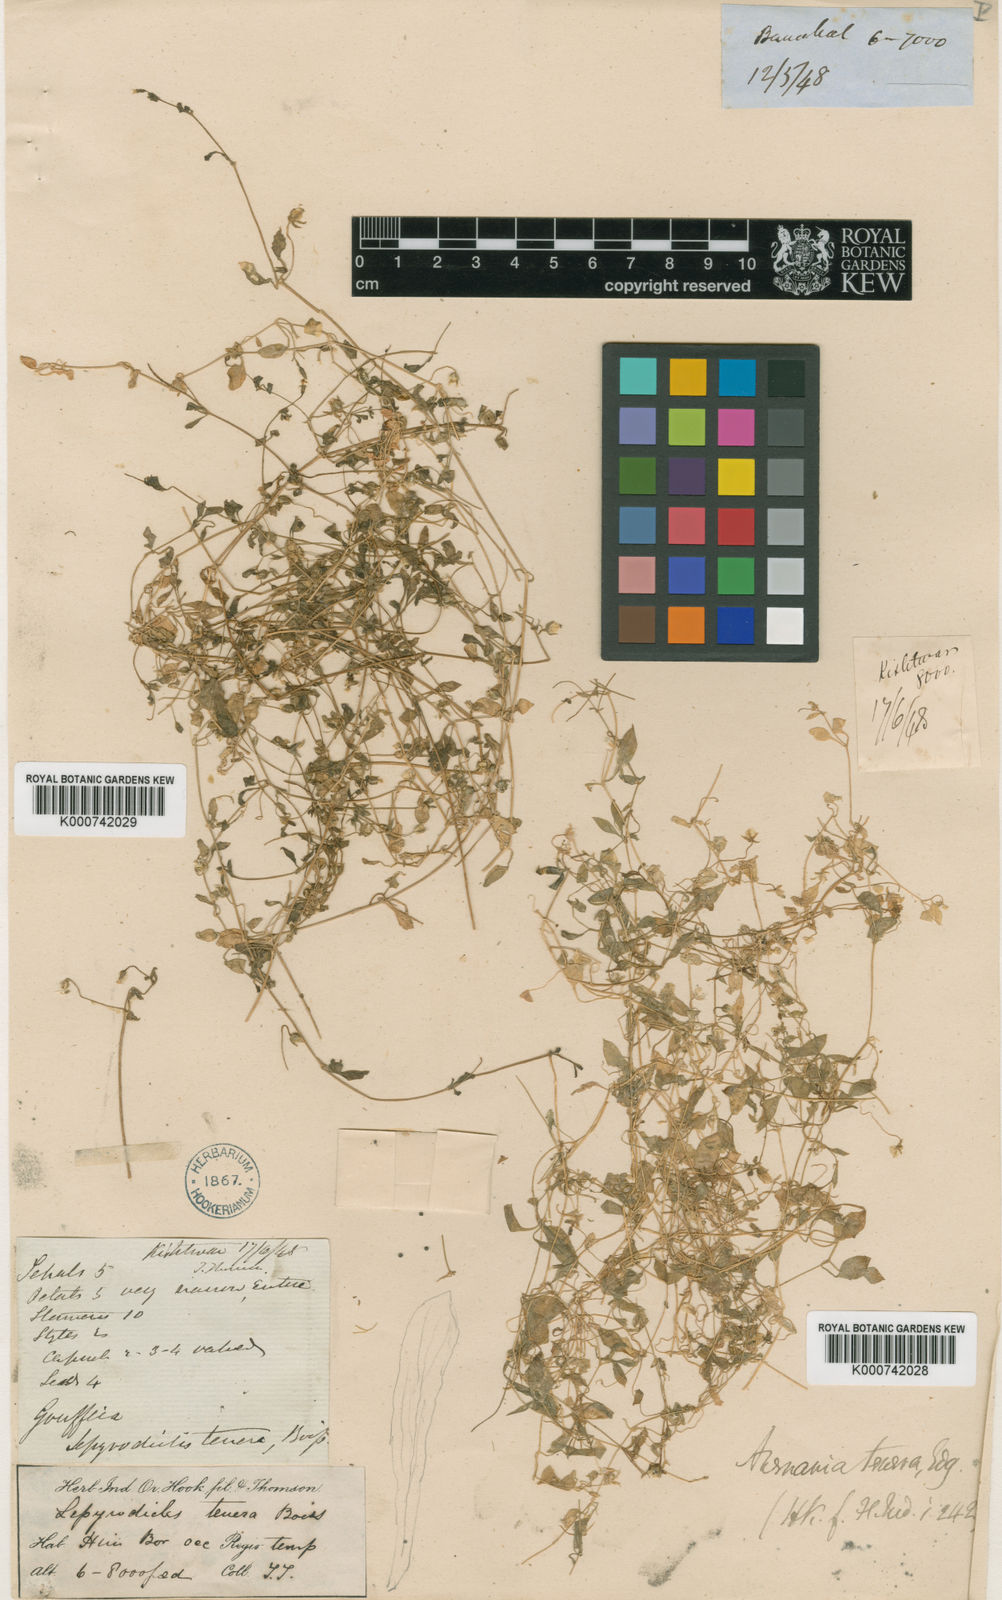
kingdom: Plantae
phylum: Tracheophyta
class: Magnoliopsida
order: Caryophyllales
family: Caryophyllaceae
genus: Lepyrodiclis
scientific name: Lepyrodiclis tenera
